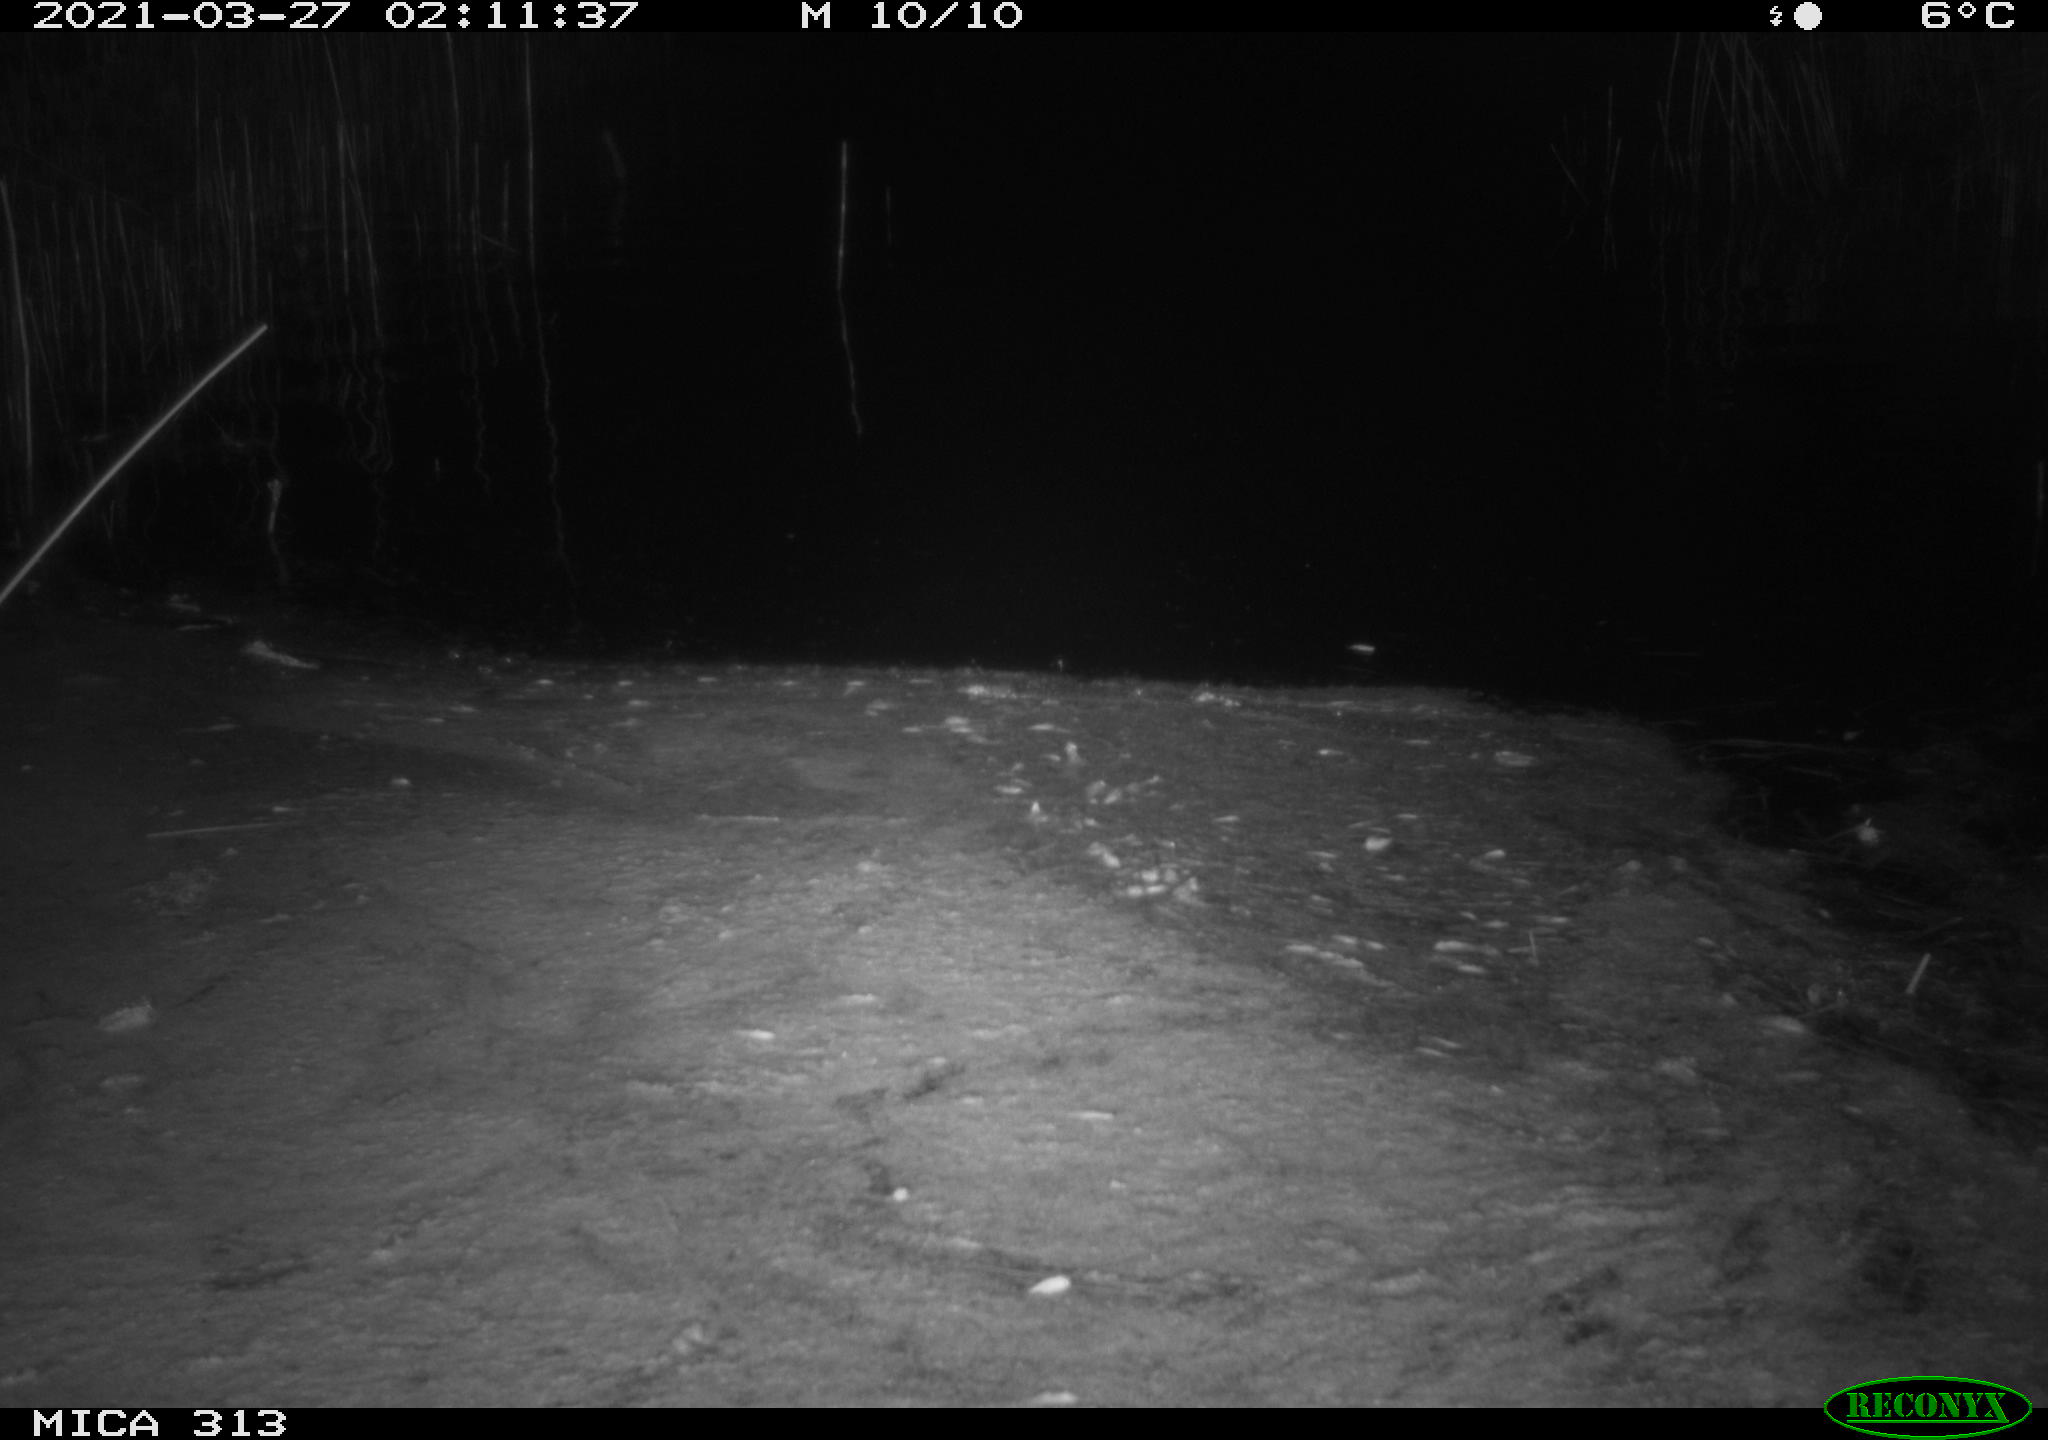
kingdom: Animalia
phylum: Chordata
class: Aves
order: Anseriformes
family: Anatidae
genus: Anas
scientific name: Anas platyrhynchos
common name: Mallard
